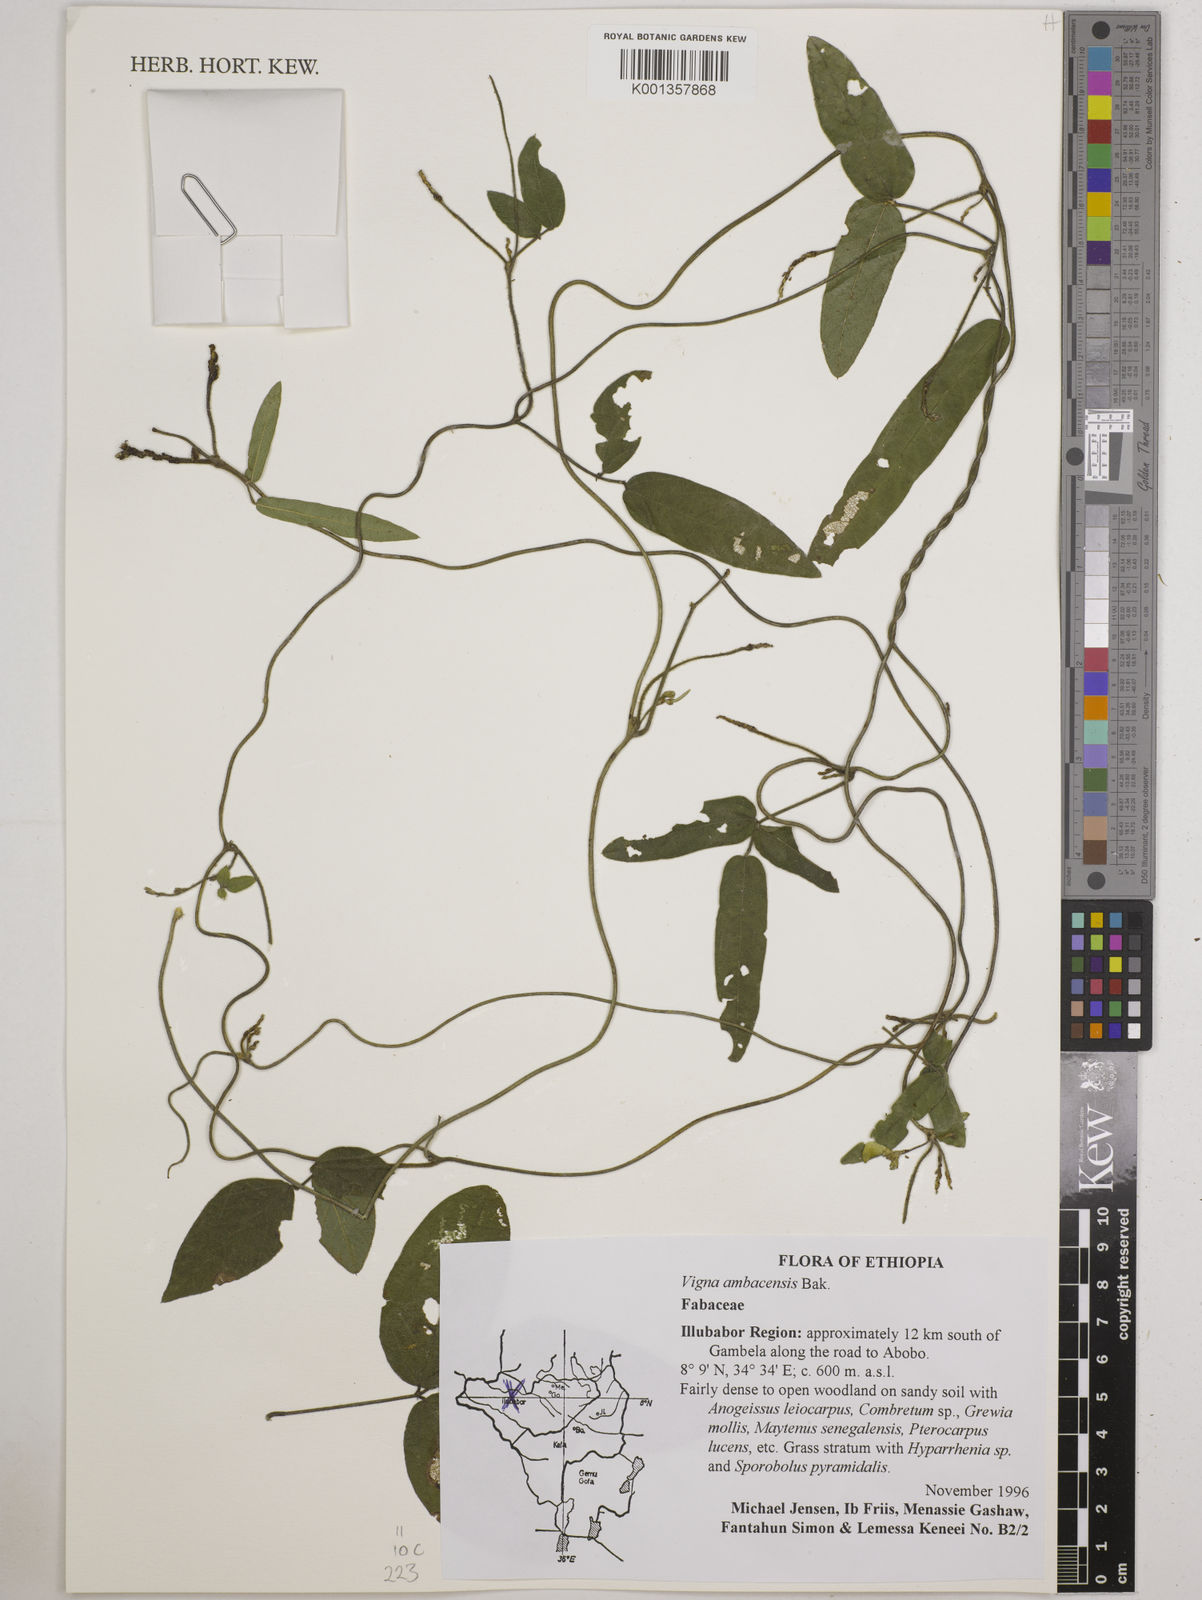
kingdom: Plantae
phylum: Tracheophyta
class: Magnoliopsida
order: Fabales
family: Fabaceae
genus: Vigna
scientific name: Vigna ambacensis
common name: Tsarkiyan zomo
